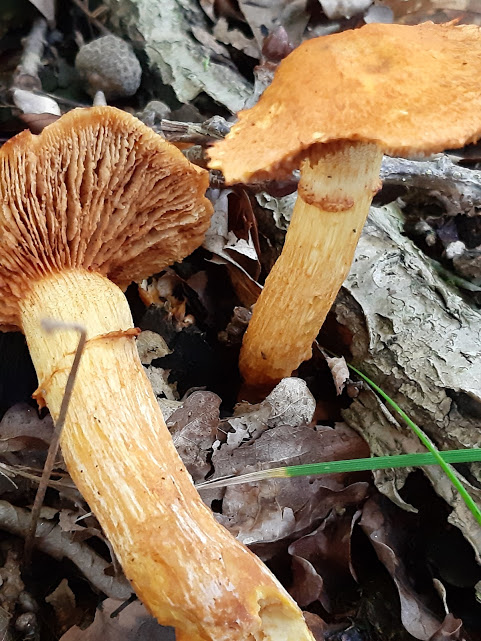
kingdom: Fungi
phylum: Basidiomycota
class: Agaricomycetes
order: Agaricales
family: Hymenogastraceae
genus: Gymnopilus
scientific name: Gymnopilus spectabilis
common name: fibret flammehat
